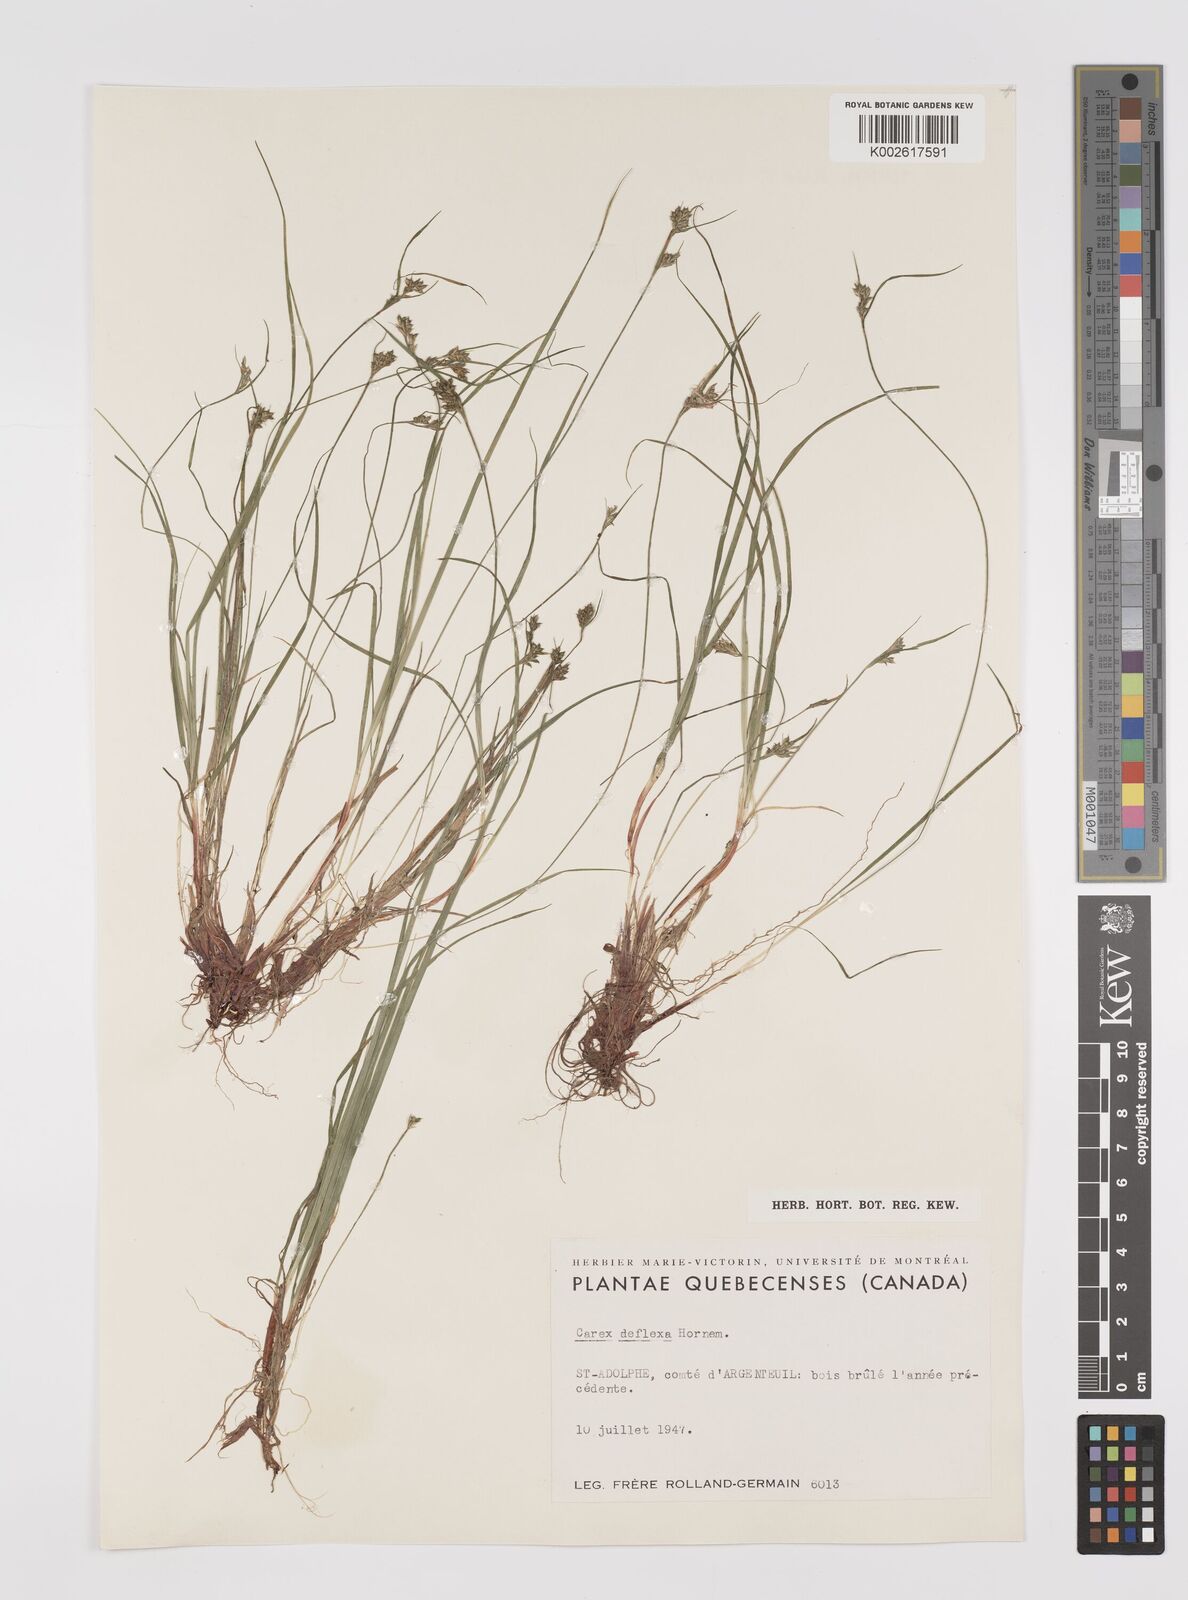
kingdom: Plantae
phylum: Tracheophyta
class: Liliopsida
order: Poales
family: Cyperaceae
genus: Carex
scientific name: Carex deflexa
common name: Bent northern sedge
